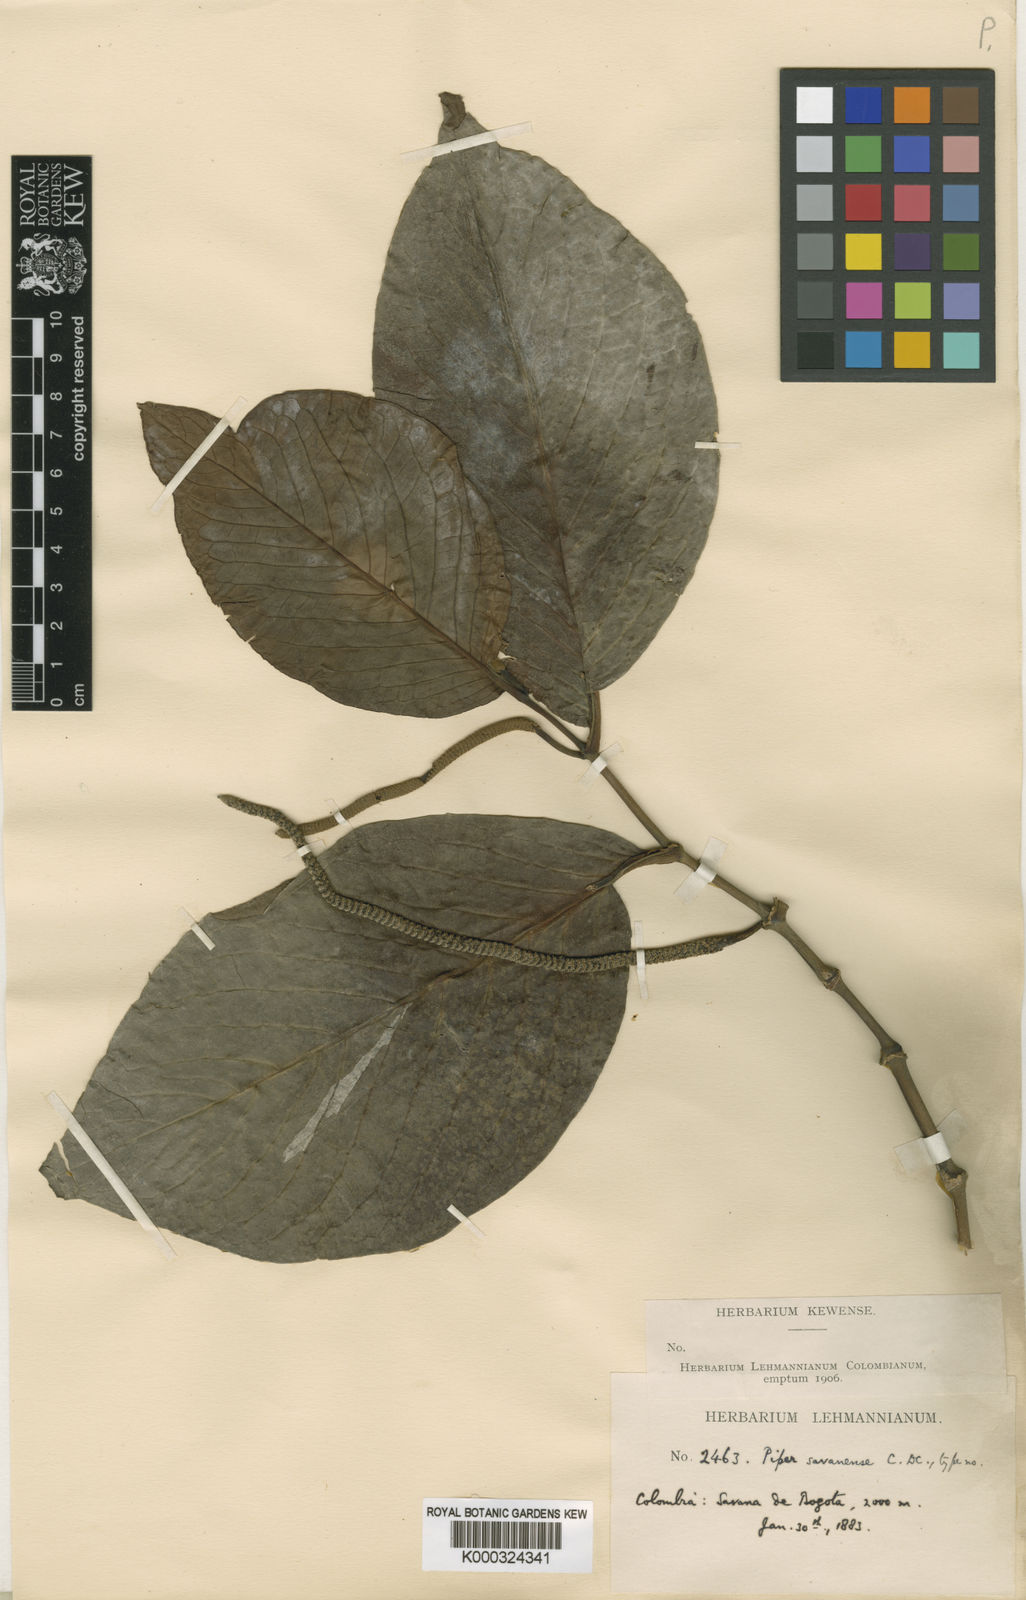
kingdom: Plantae
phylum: Tracheophyta
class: Magnoliopsida
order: Piperales
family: Piperaceae
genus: Piper
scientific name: Piper savanense
